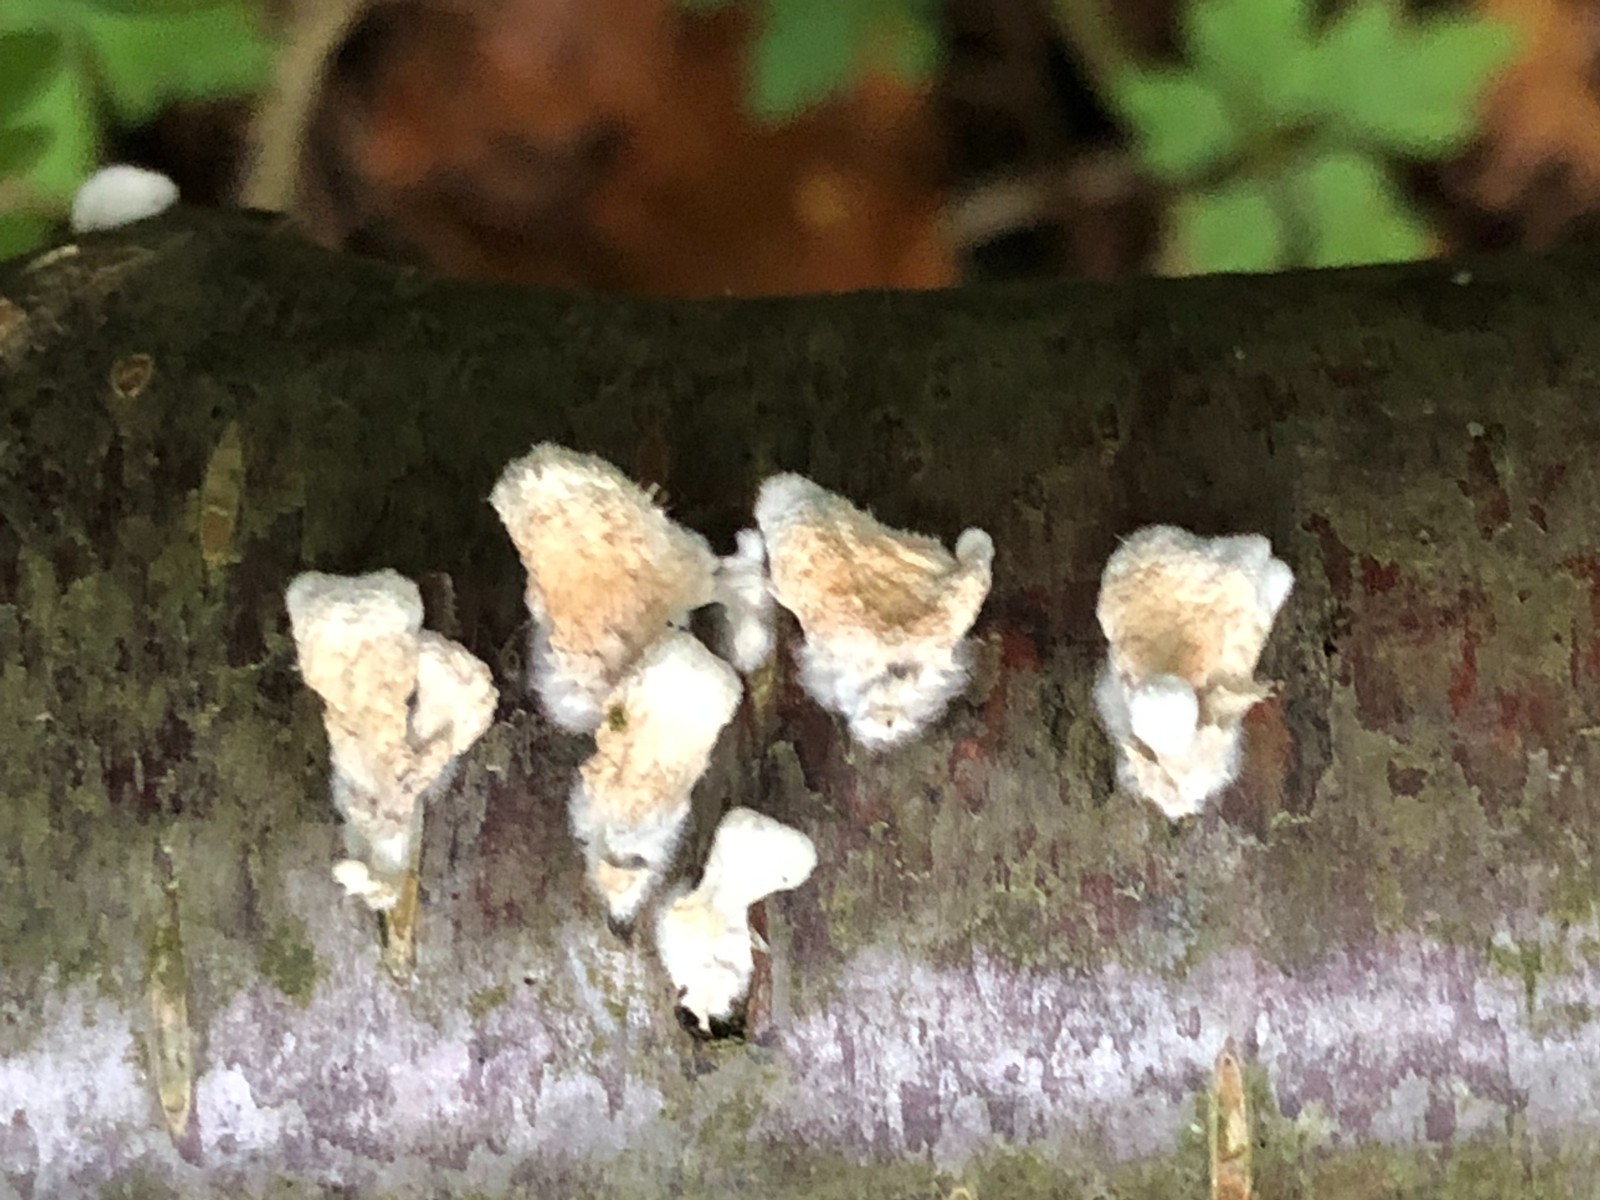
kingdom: Fungi
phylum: Basidiomycota
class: Agaricomycetes
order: Amylocorticiales
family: Amylocorticiaceae
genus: Plicaturopsis
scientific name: Plicaturopsis crispa
